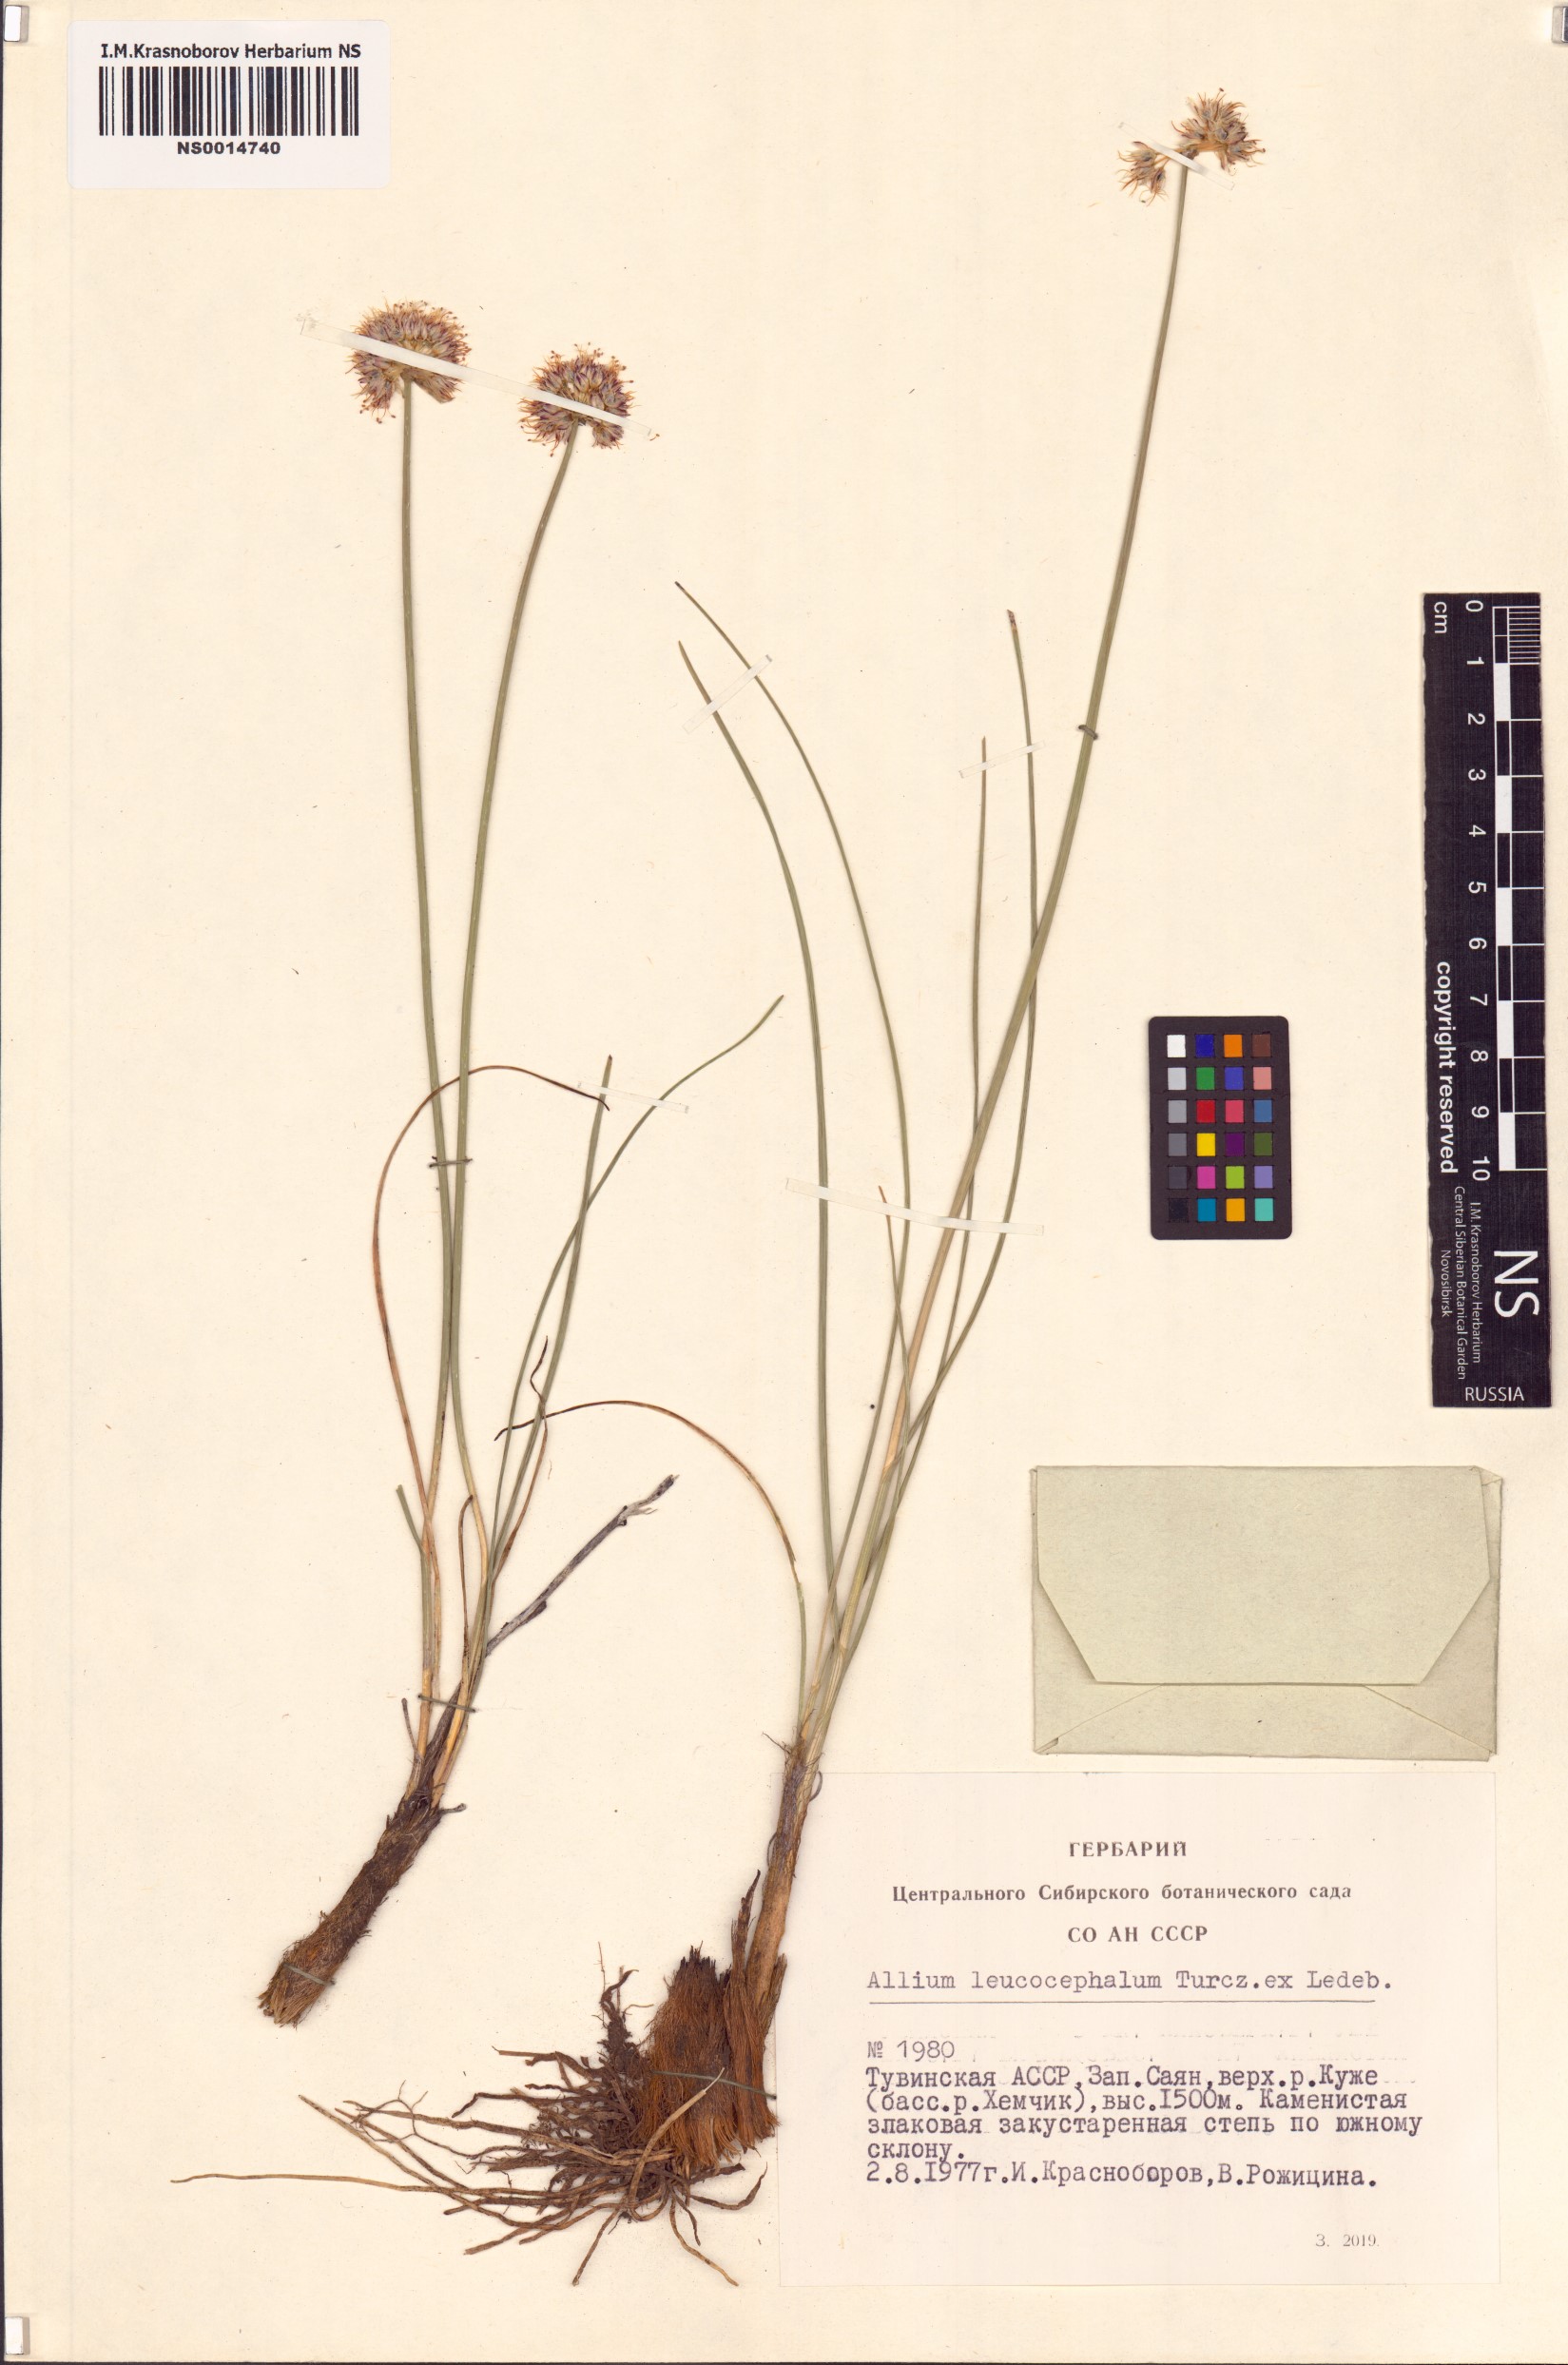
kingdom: Plantae
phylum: Tracheophyta
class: Liliopsida
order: Asparagales
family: Amaryllidaceae
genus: Allium
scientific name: Allium leucocephalum
